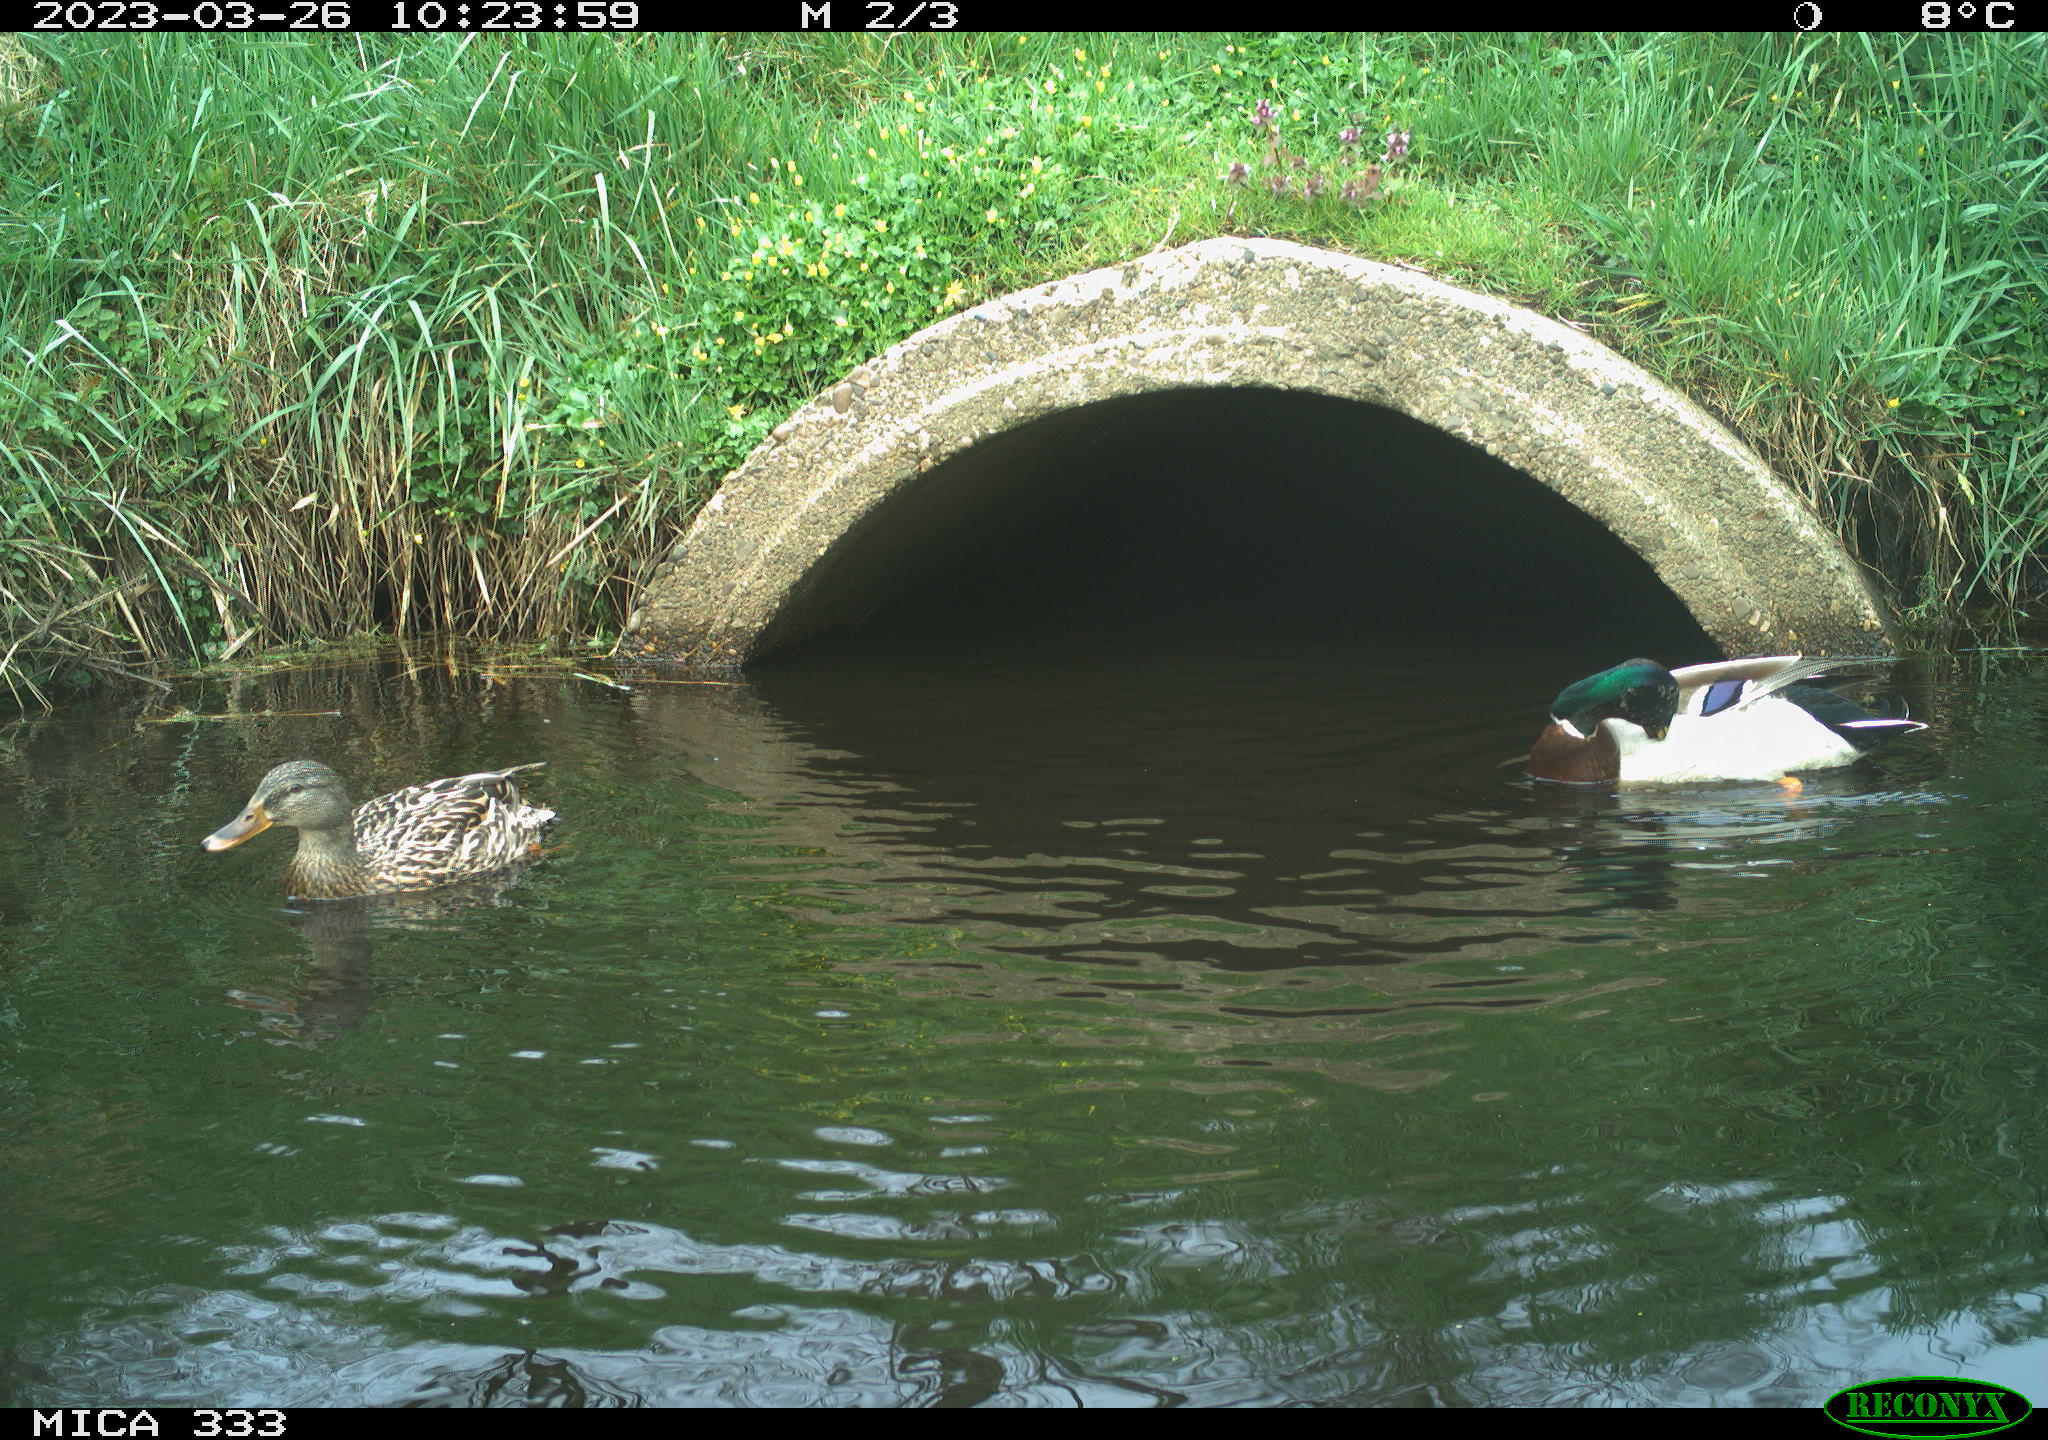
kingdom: Animalia
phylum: Chordata
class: Aves
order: Anseriformes
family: Anatidae
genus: Anas
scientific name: Anas platyrhynchos
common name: Mallard
